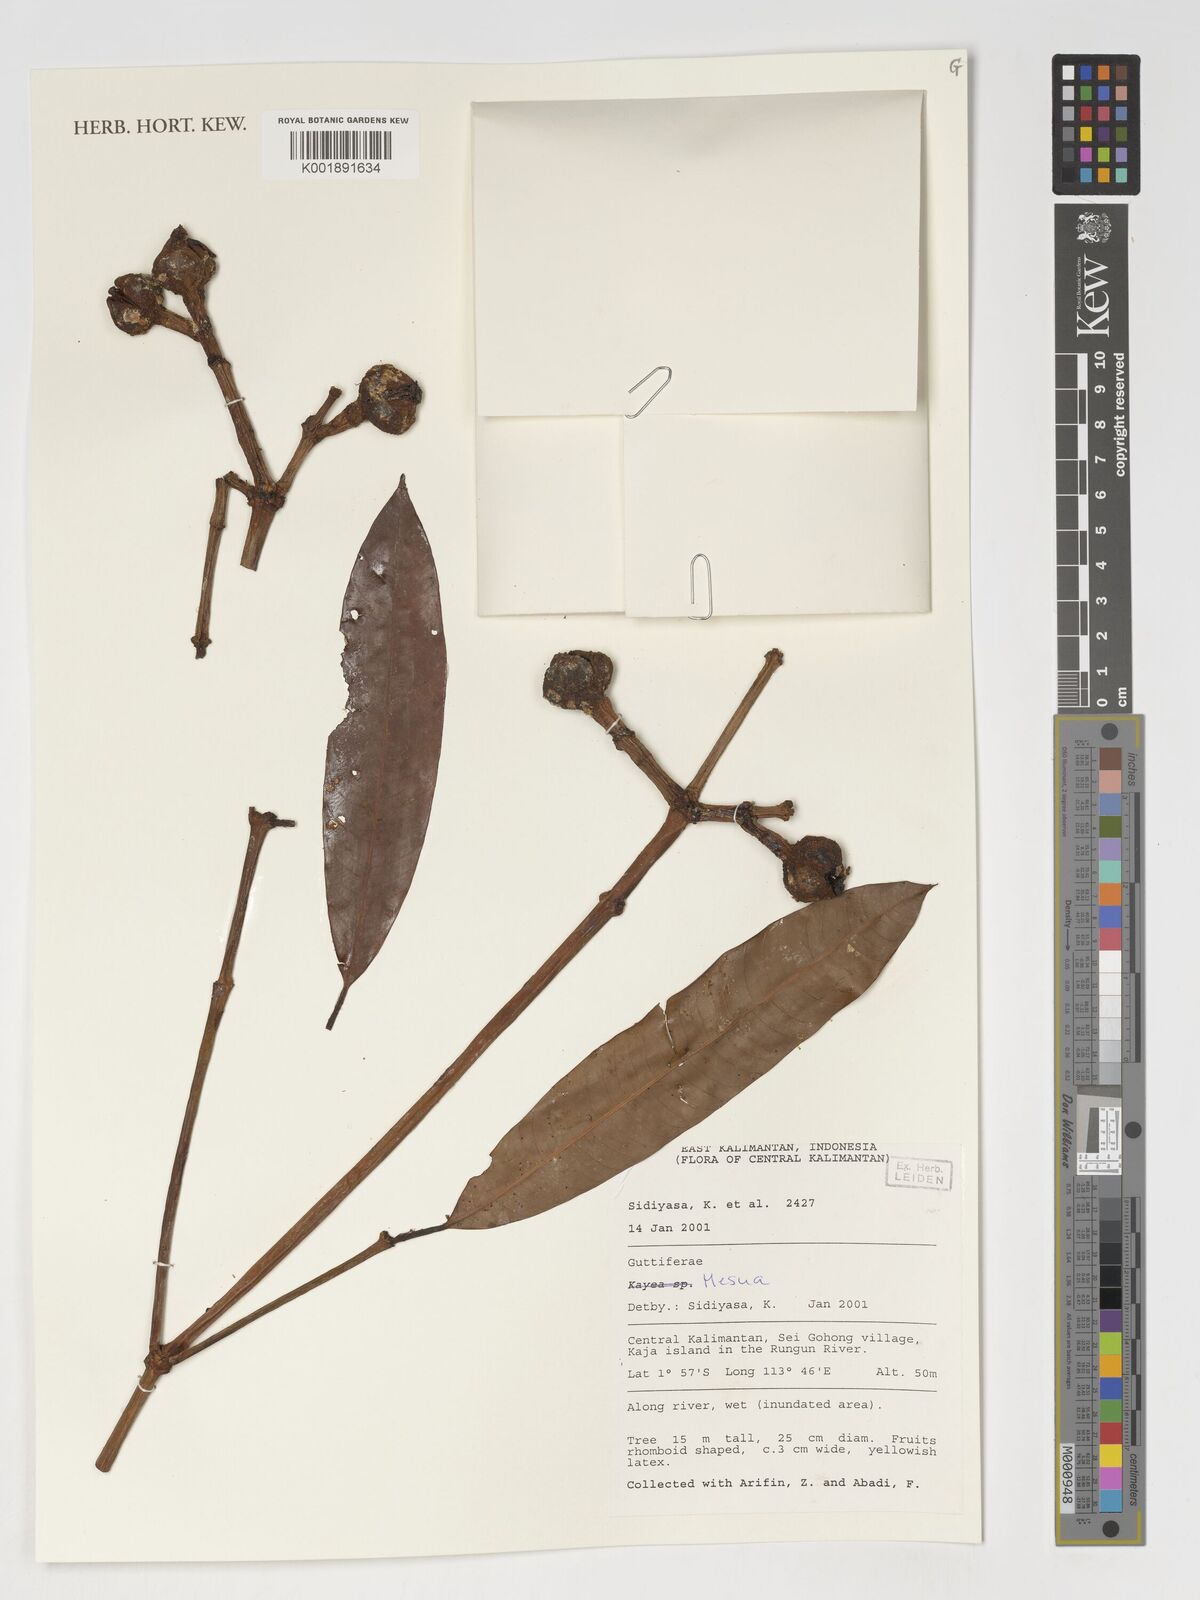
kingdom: Plantae
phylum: Tracheophyta
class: Magnoliopsida
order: Malpighiales
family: Calophyllaceae
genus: Mesua
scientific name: Mesua
